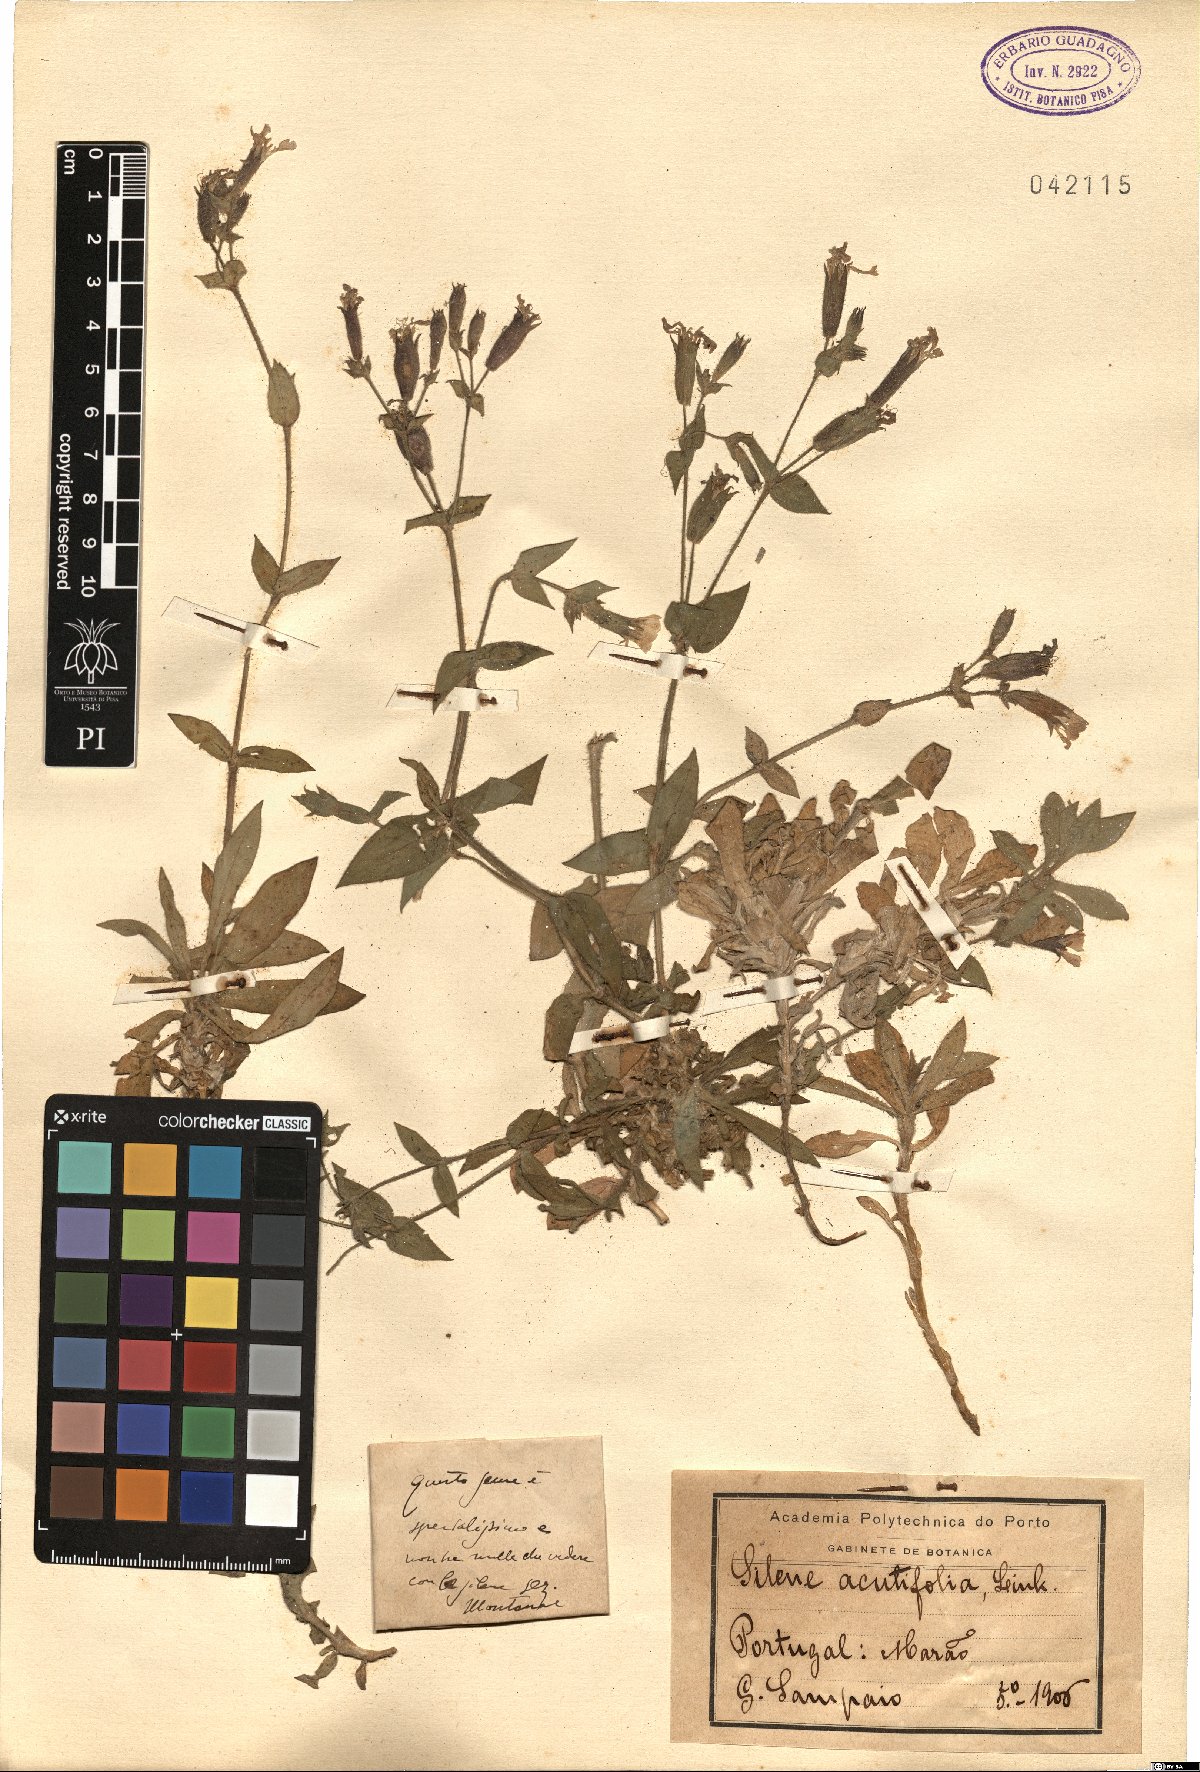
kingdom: Plantae
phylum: Tracheophyta
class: Magnoliopsida
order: Caryophyllales
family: Caryophyllaceae
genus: Silene
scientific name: Silene acutifolia
